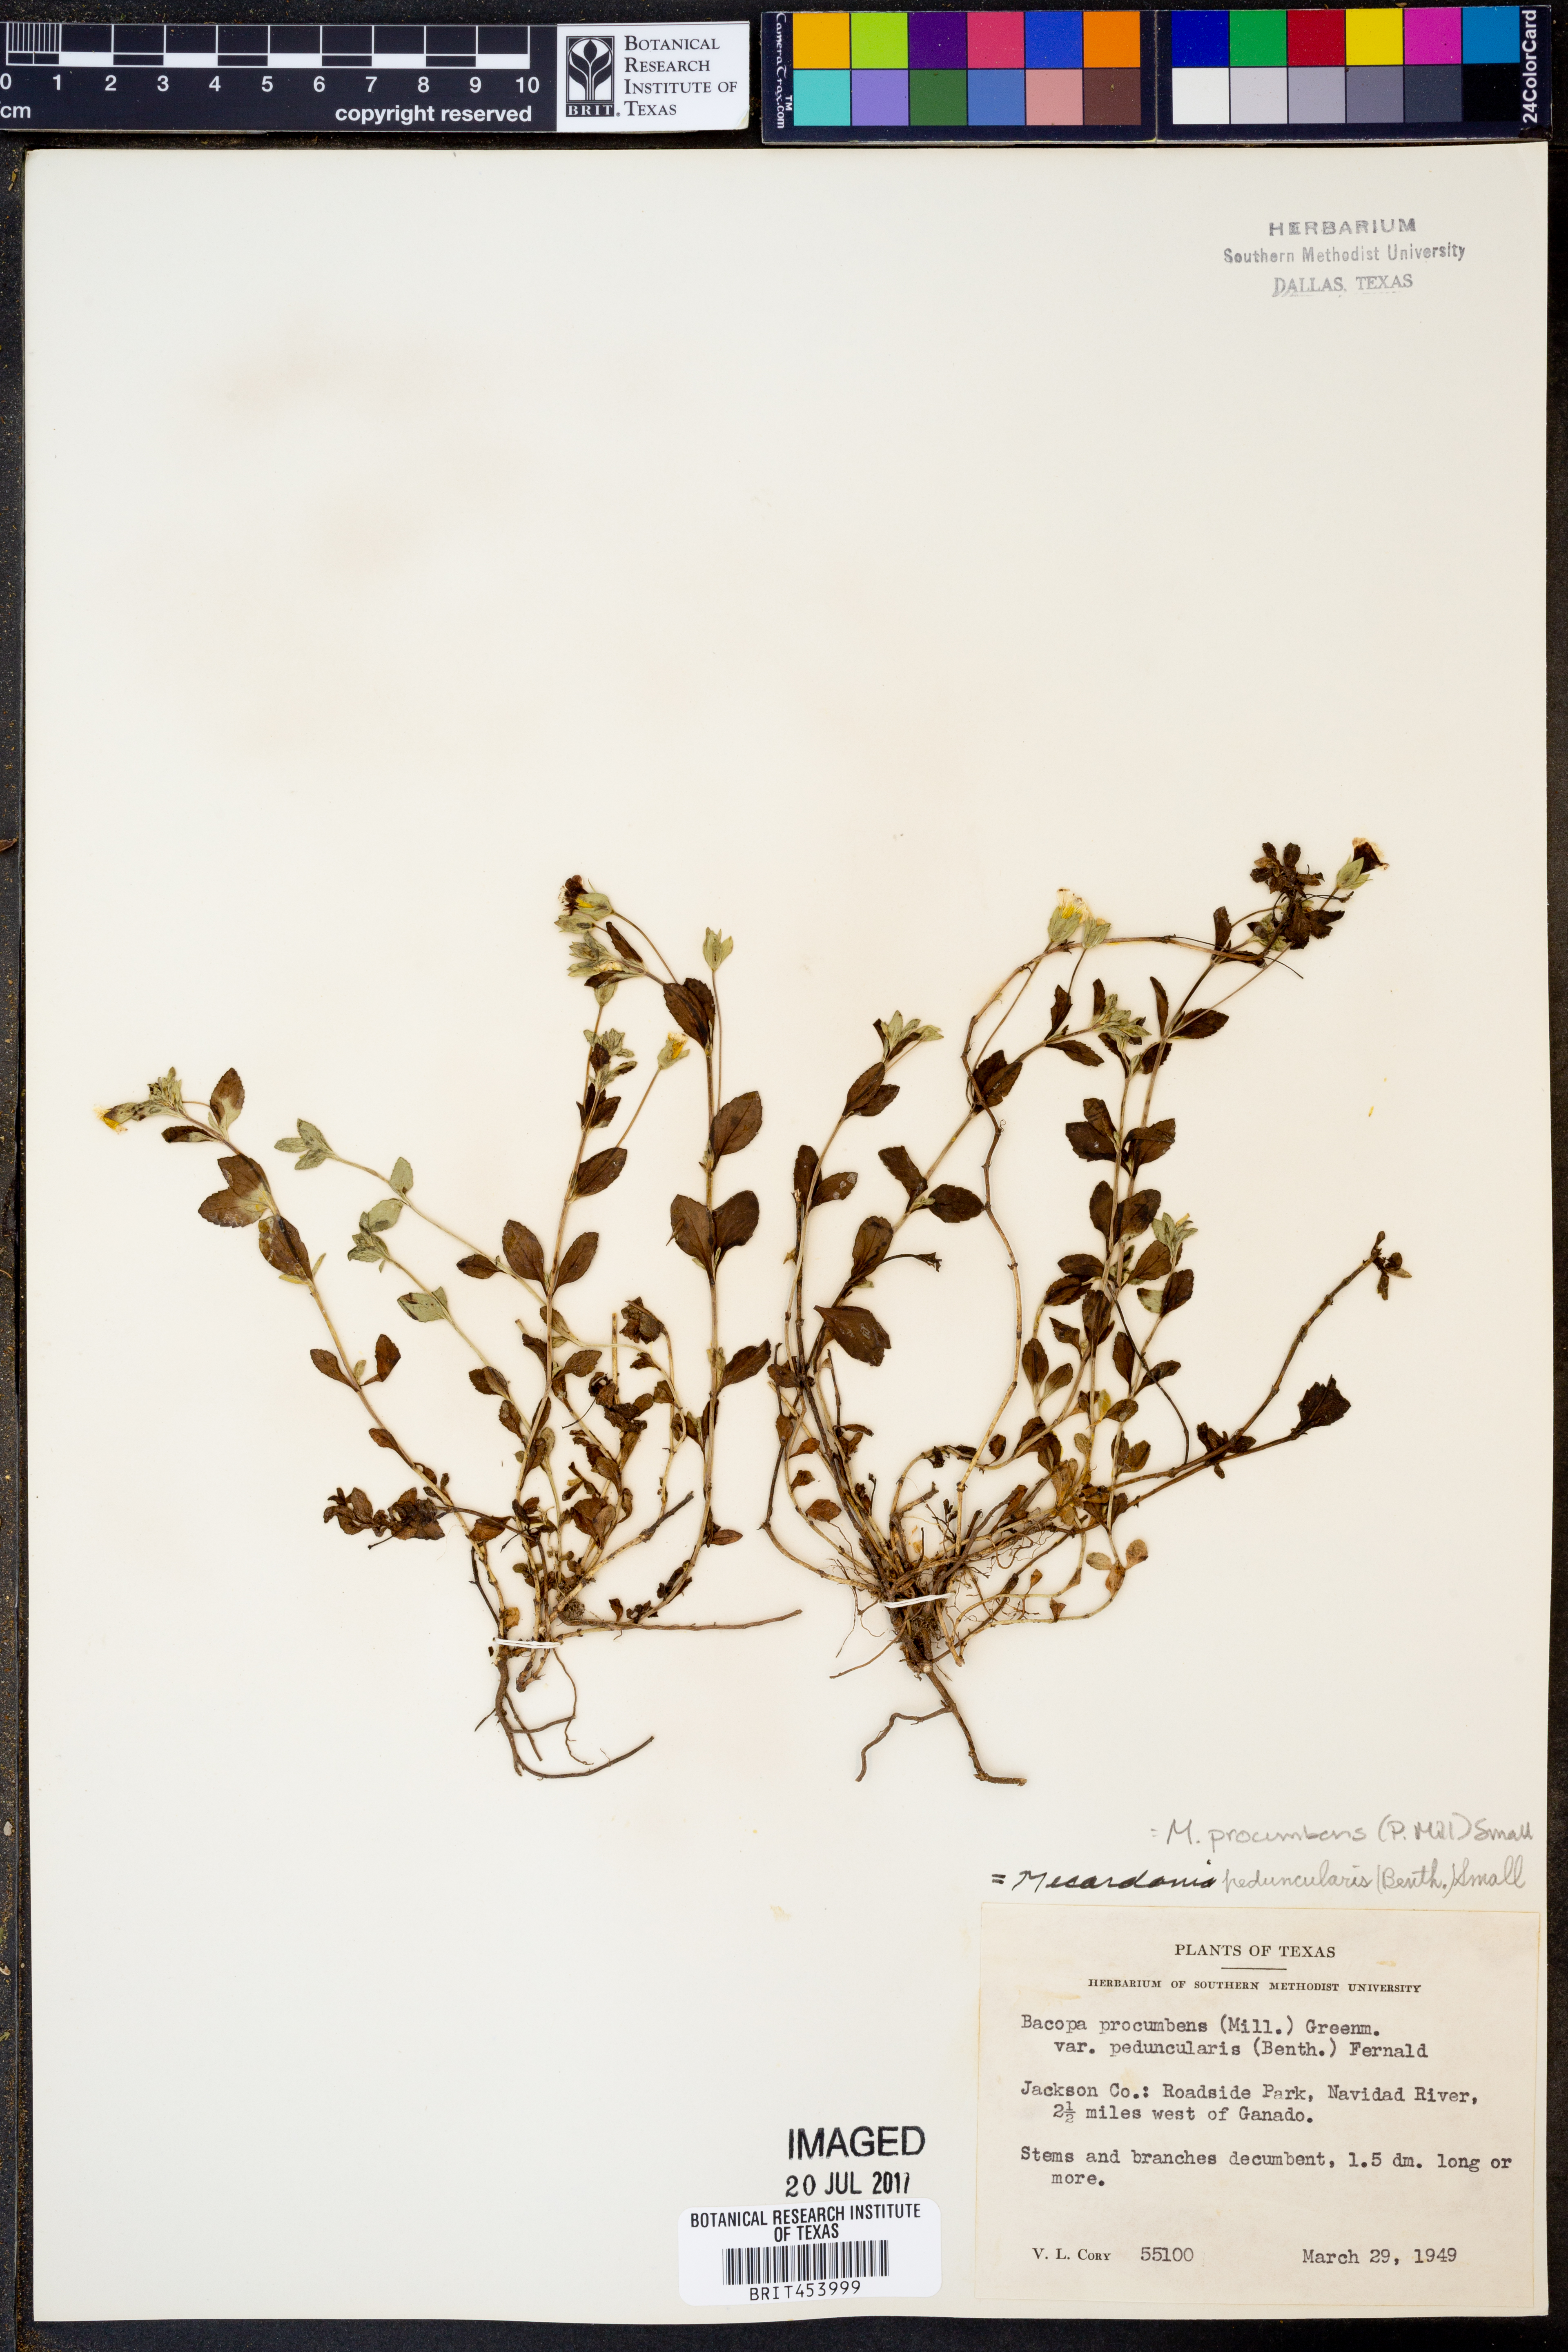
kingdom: Plantae
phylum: Tracheophyta
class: Magnoliopsida
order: Lamiales
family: Plantaginaceae
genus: Mecardonia
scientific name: Mecardonia procumbens
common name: Baby jump-up
